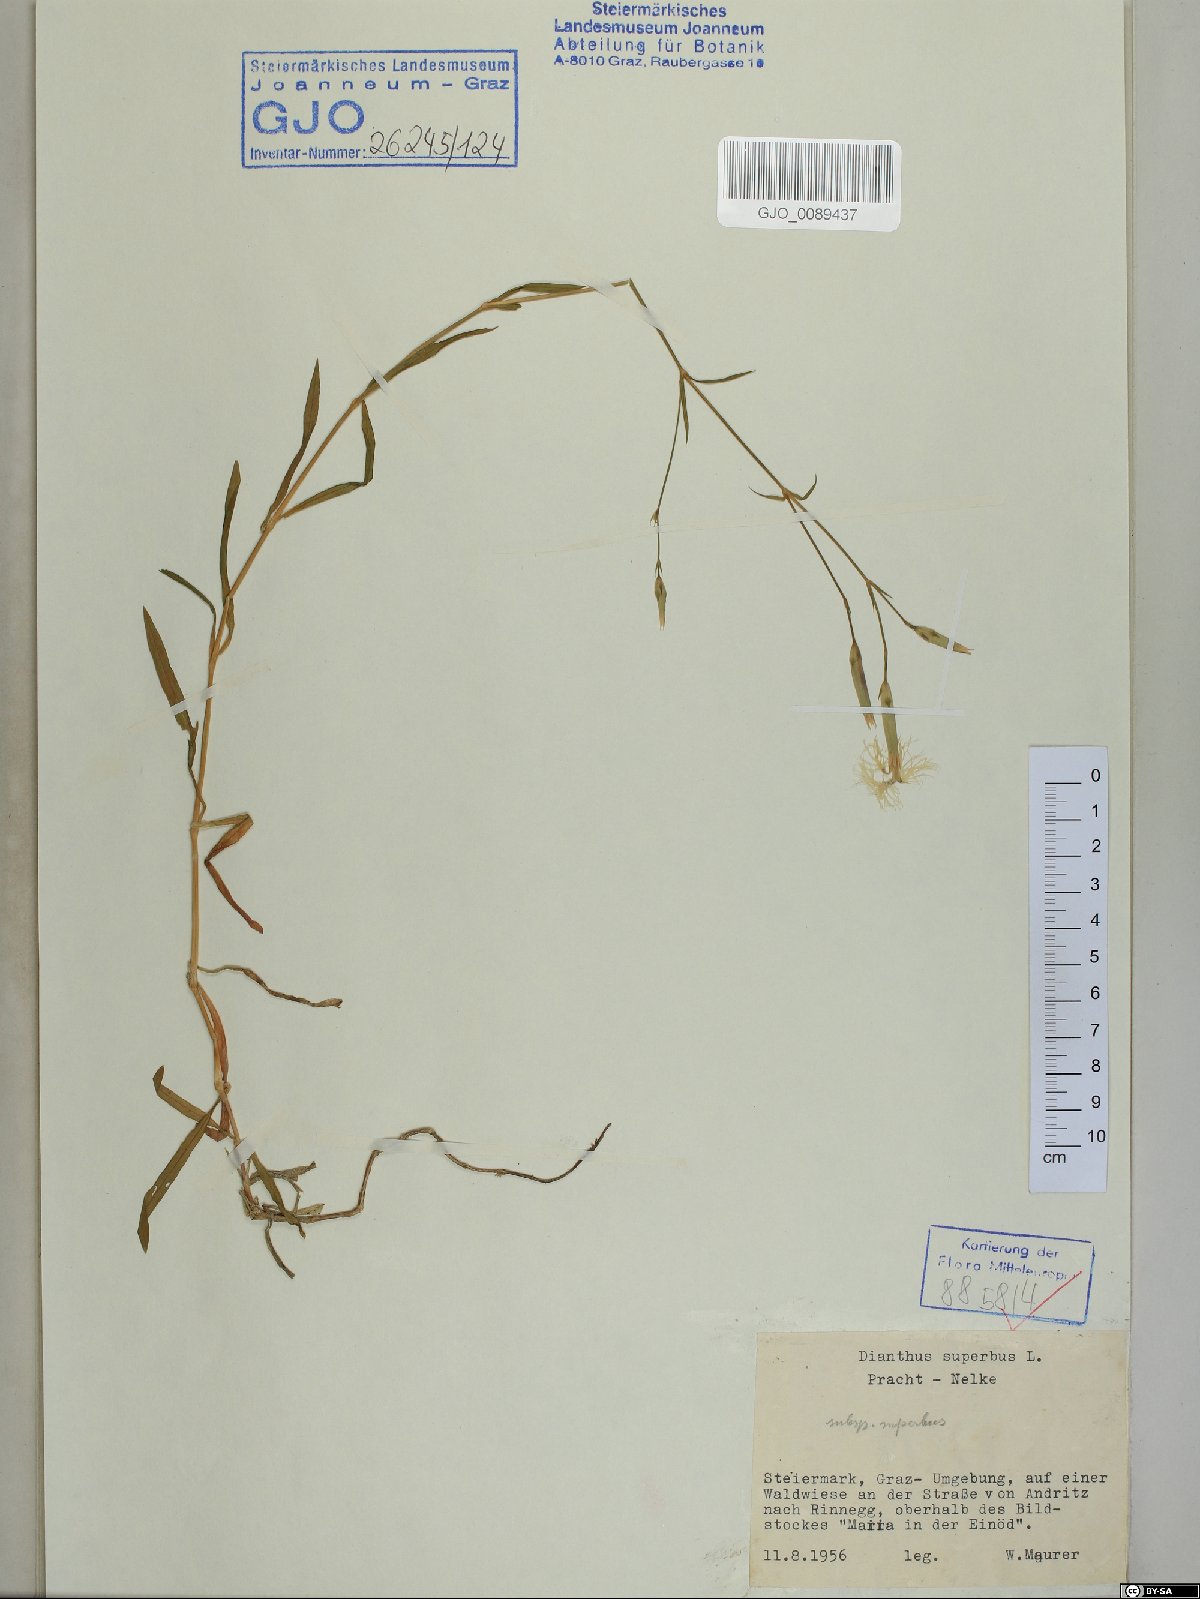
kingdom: Plantae
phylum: Tracheophyta
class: Magnoliopsida
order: Caryophyllales
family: Caryophyllaceae
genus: Dianthus
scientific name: Dianthus superbus
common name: Fringed pink
